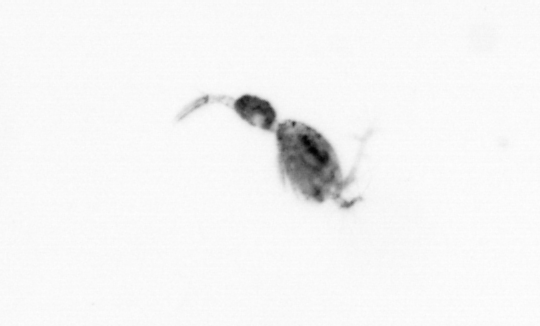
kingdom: Animalia
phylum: Arthropoda
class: Copepoda
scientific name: Copepoda
